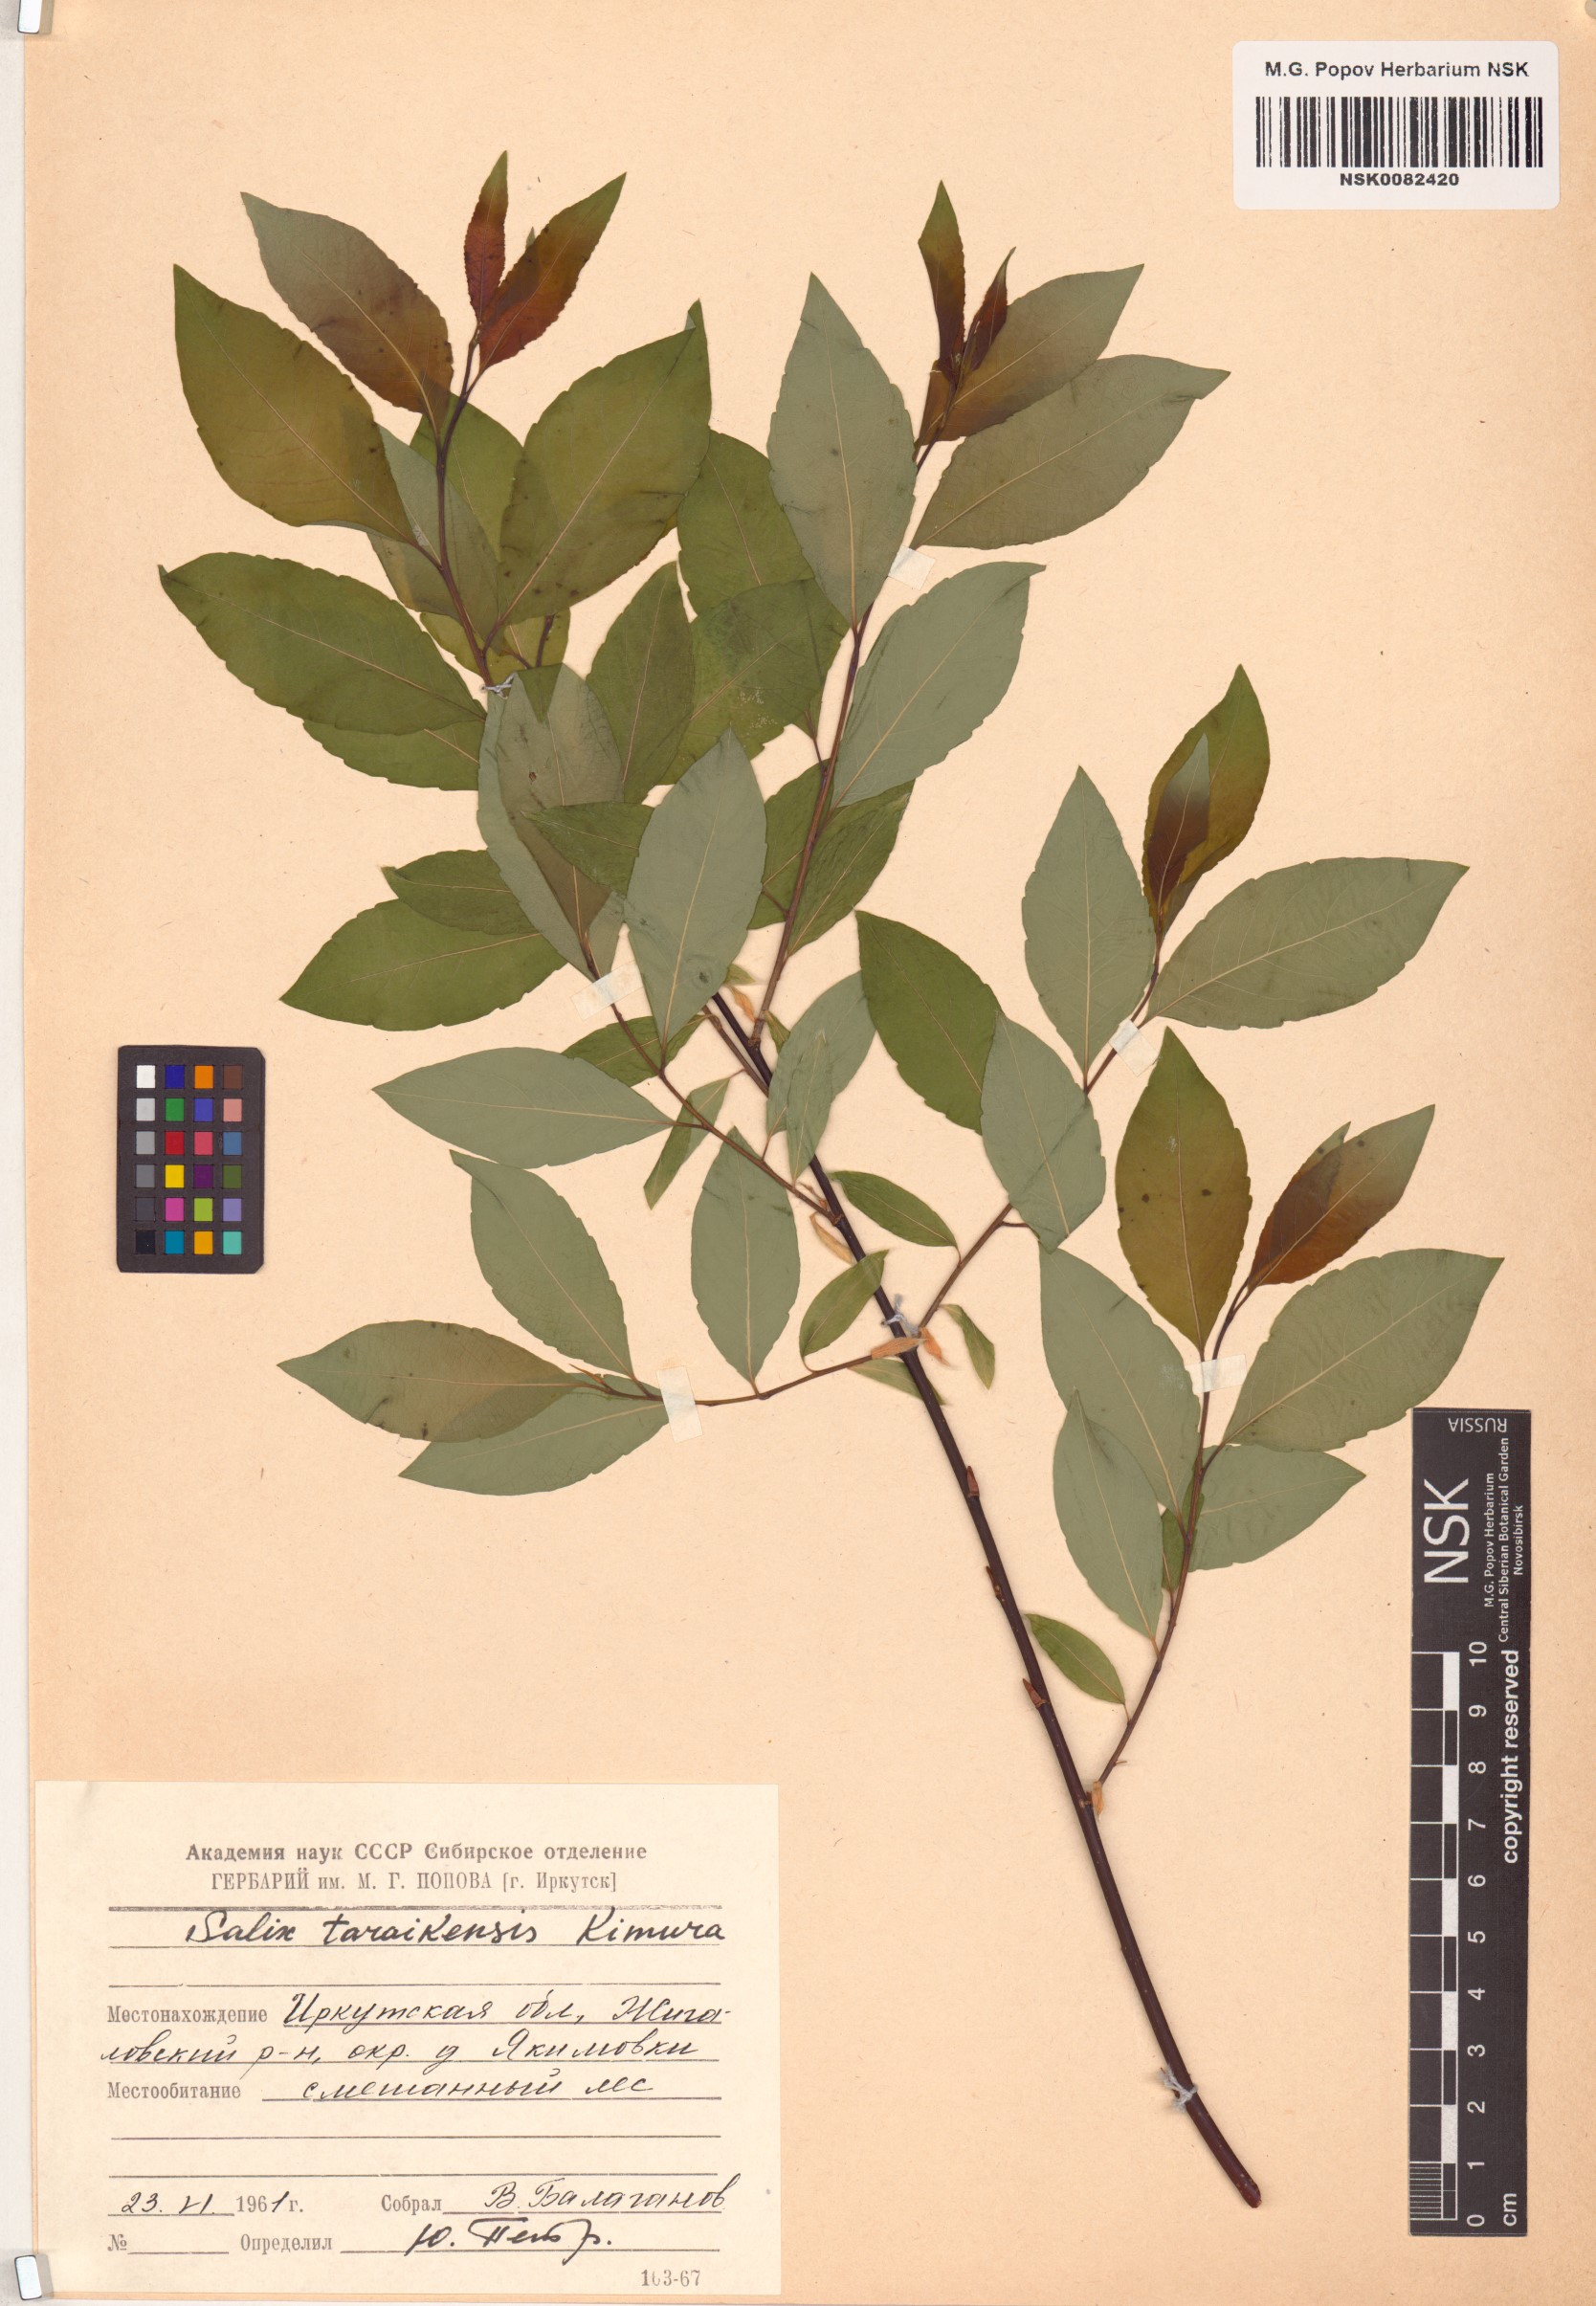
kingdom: Plantae
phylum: Tracheophyta
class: Magnoliopsida
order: Malpighiales
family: Salicaceae
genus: Salix
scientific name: Salix taraikensis
